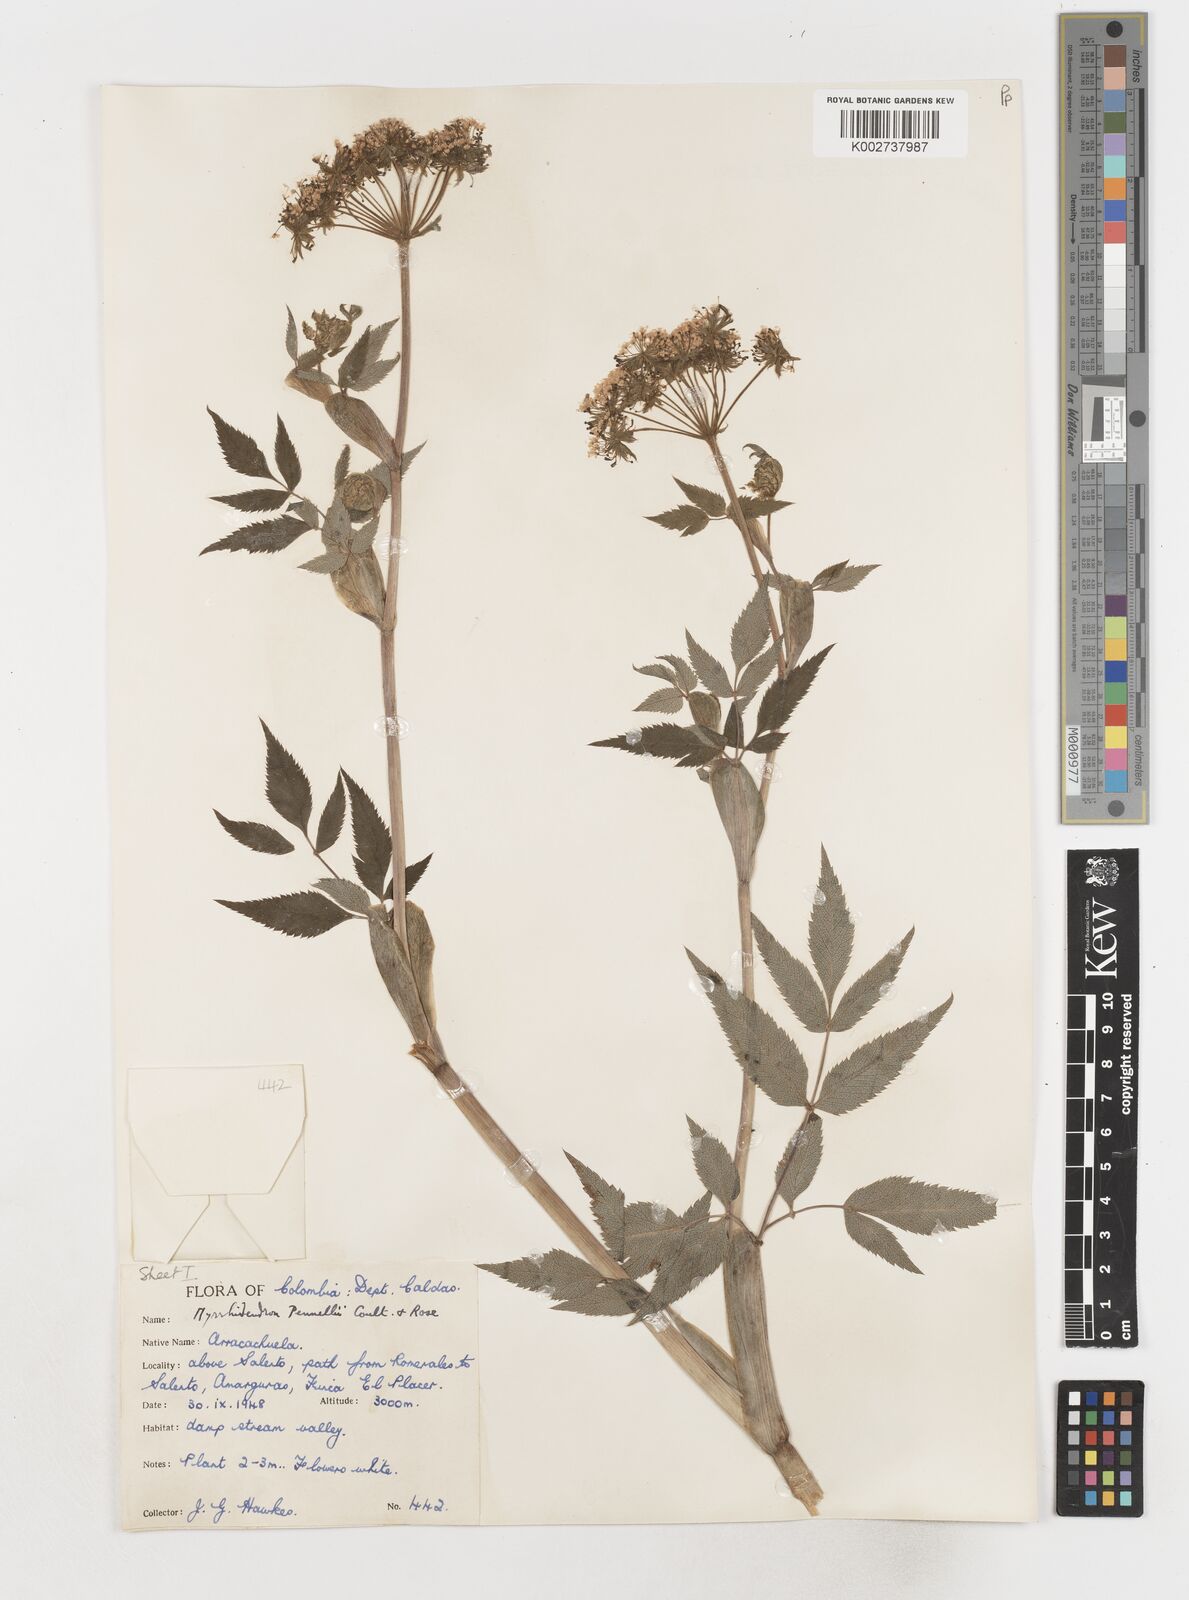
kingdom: Plantae
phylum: Tracheophyta
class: Magnoliopsida
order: Apiales
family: Apiaceae
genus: Myrrhidendron
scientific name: Myrrhidendron pennellii
